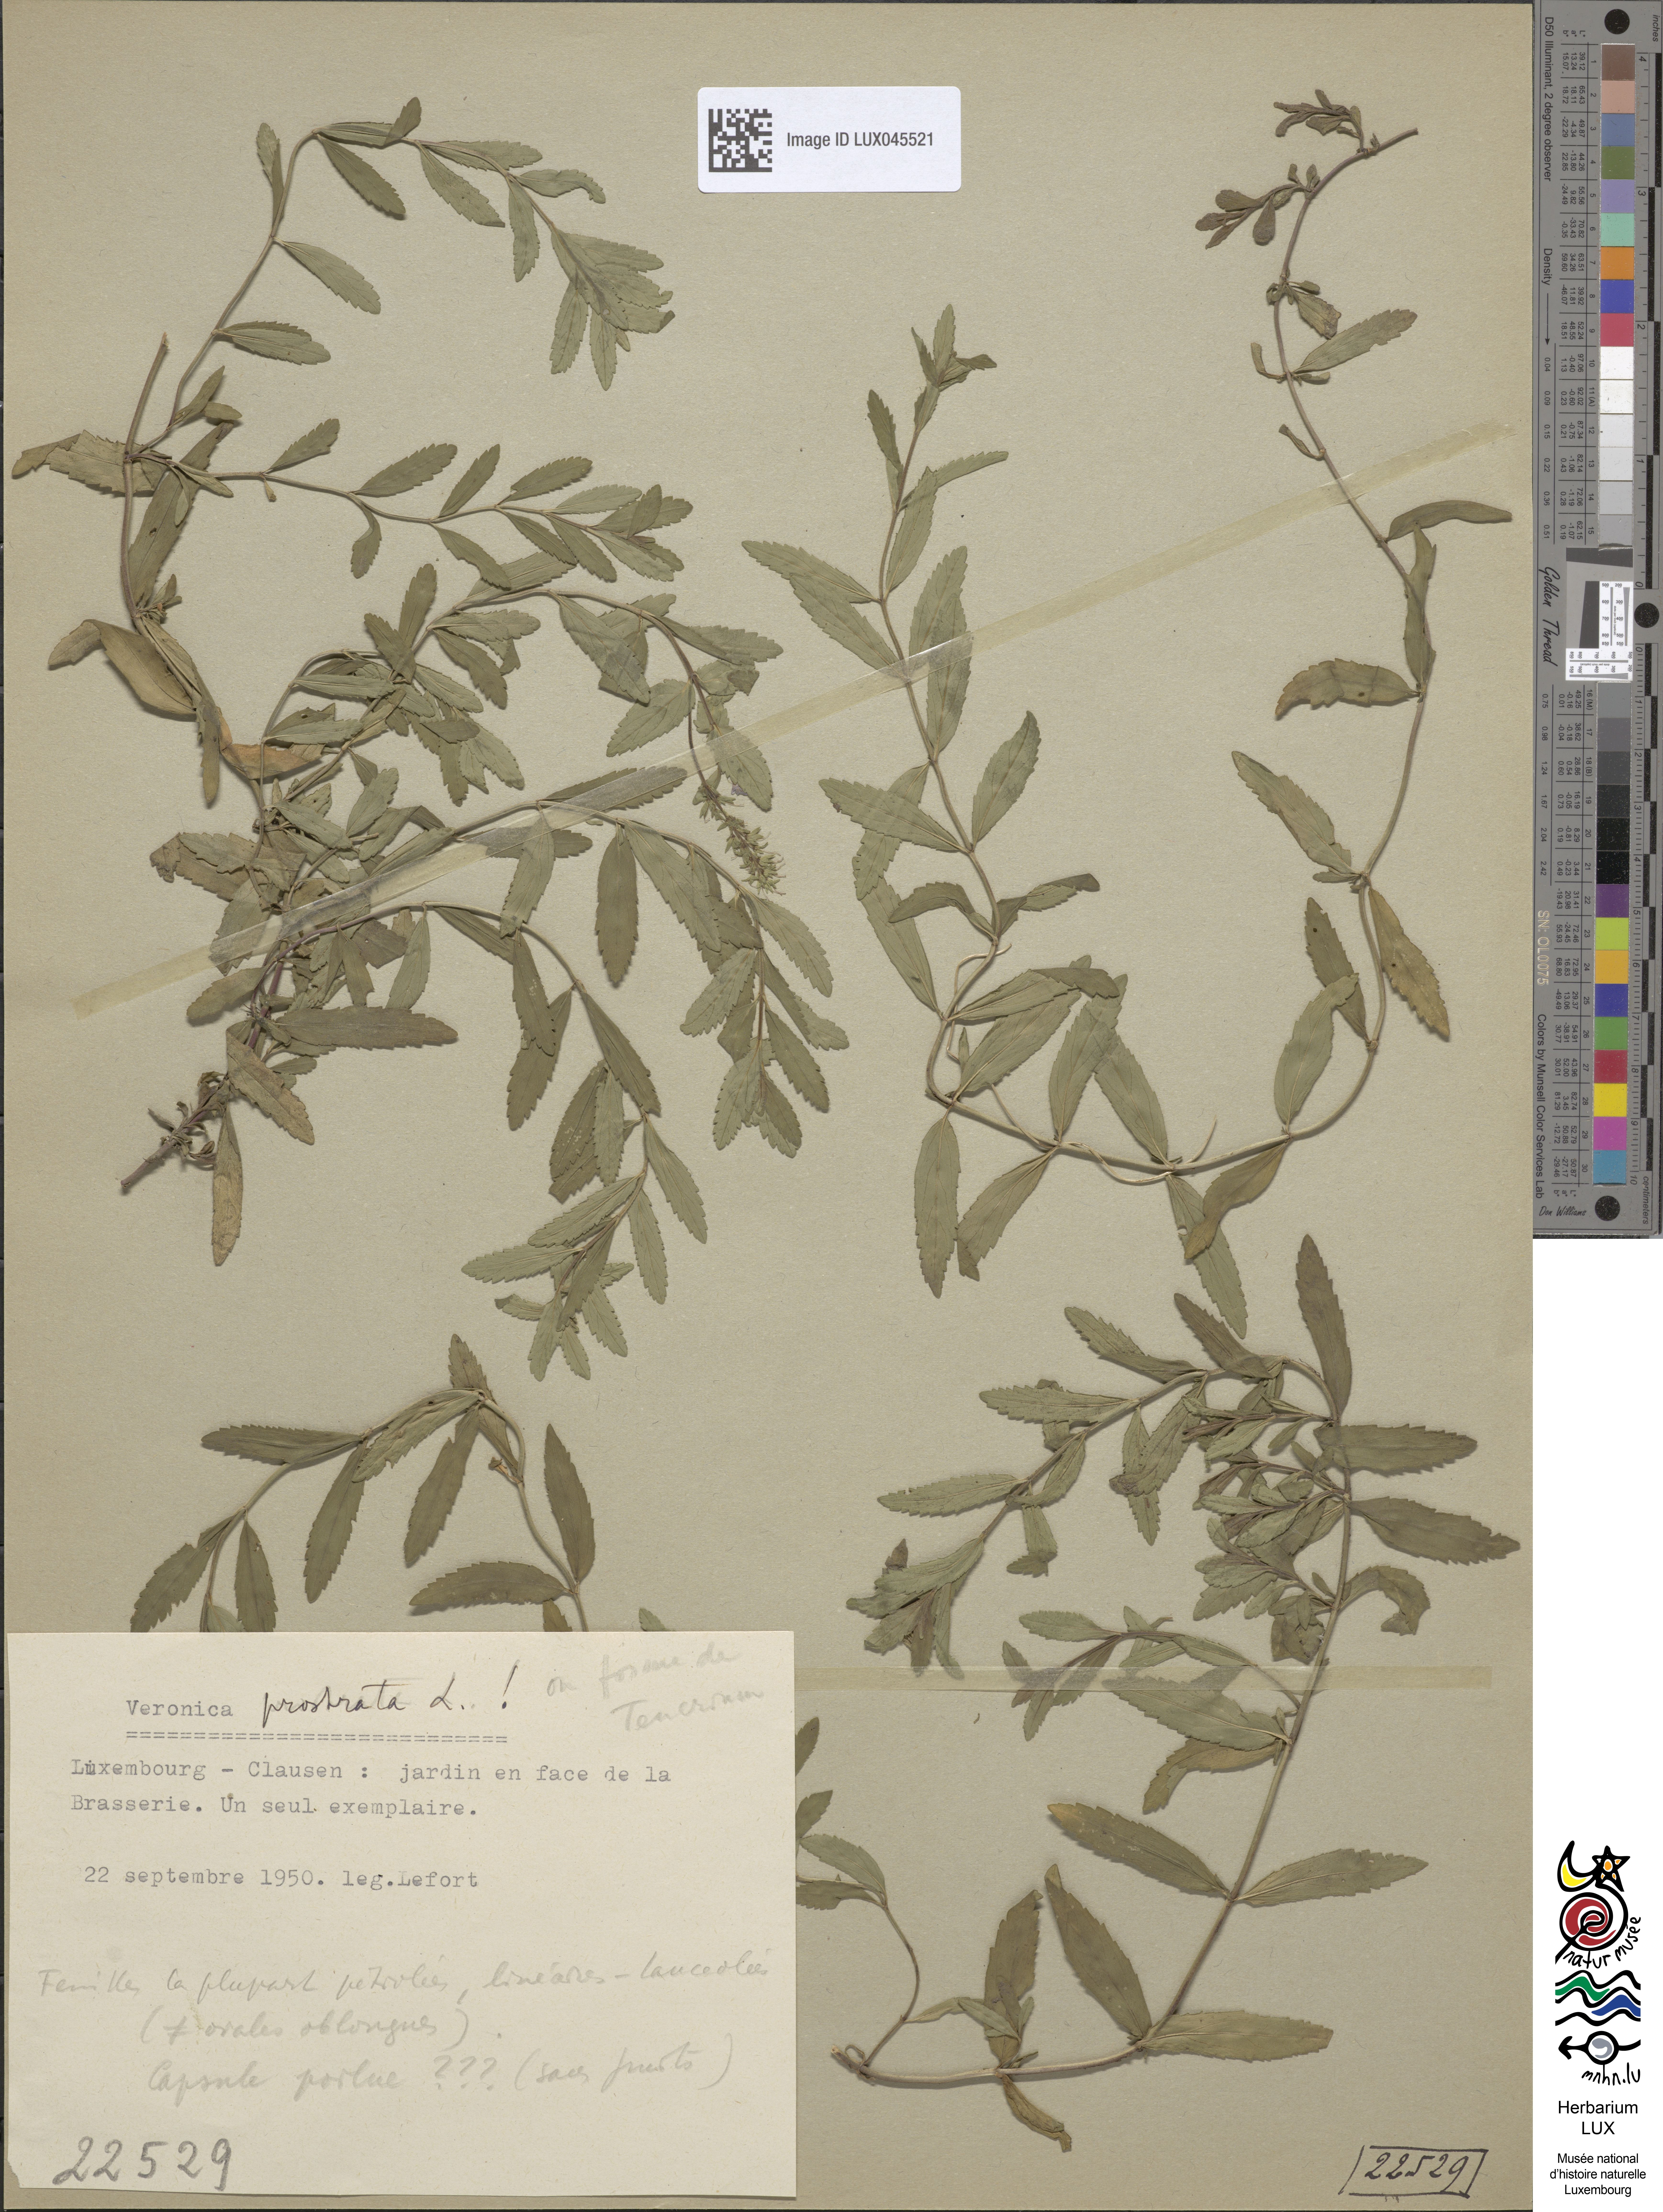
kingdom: Plantae
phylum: Tracheophyta
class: Magnoliopsida
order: Lamiales
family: Plantaginaceae
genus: Veronica
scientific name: Veronica prostrata
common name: Prostrate speedwell
